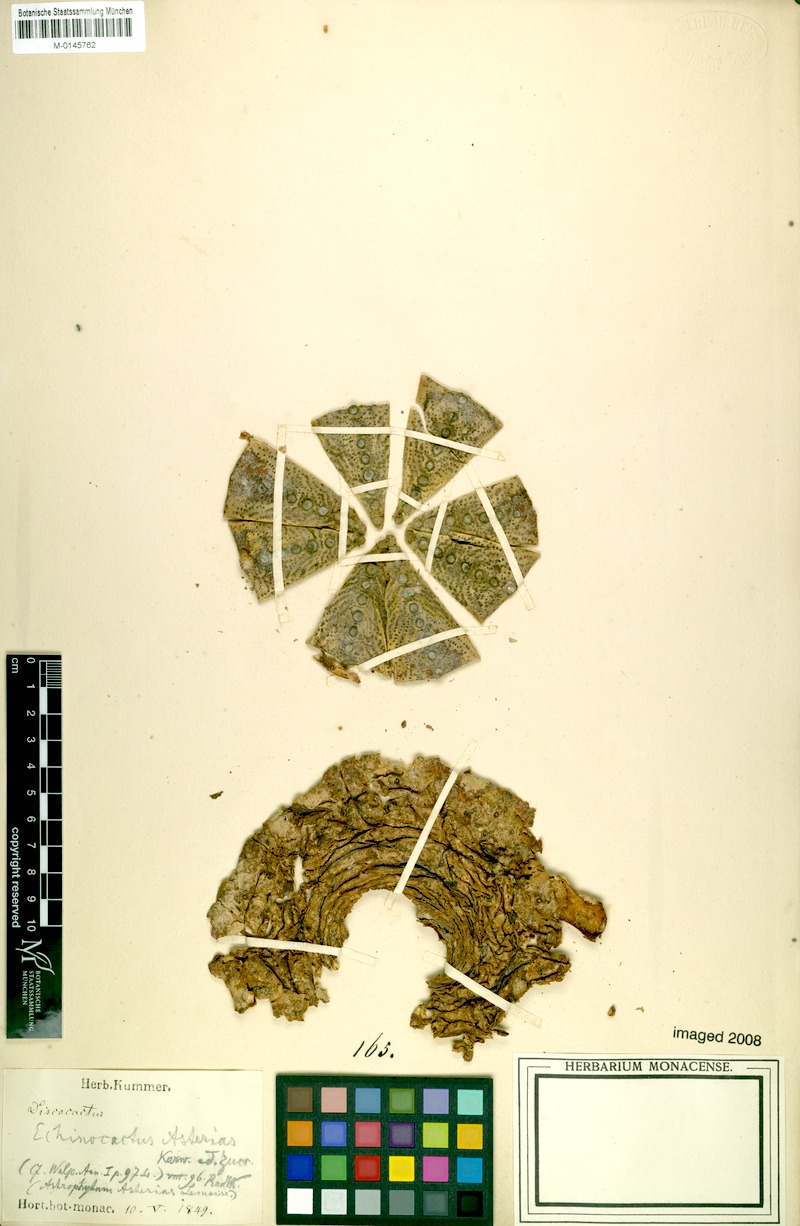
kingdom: Plantae
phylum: Tracheophyta
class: Magnoliopsida
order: Caryophyllales
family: Cactaceae
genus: Astrophytum
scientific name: Astrophytum asterias
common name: Star cactus
